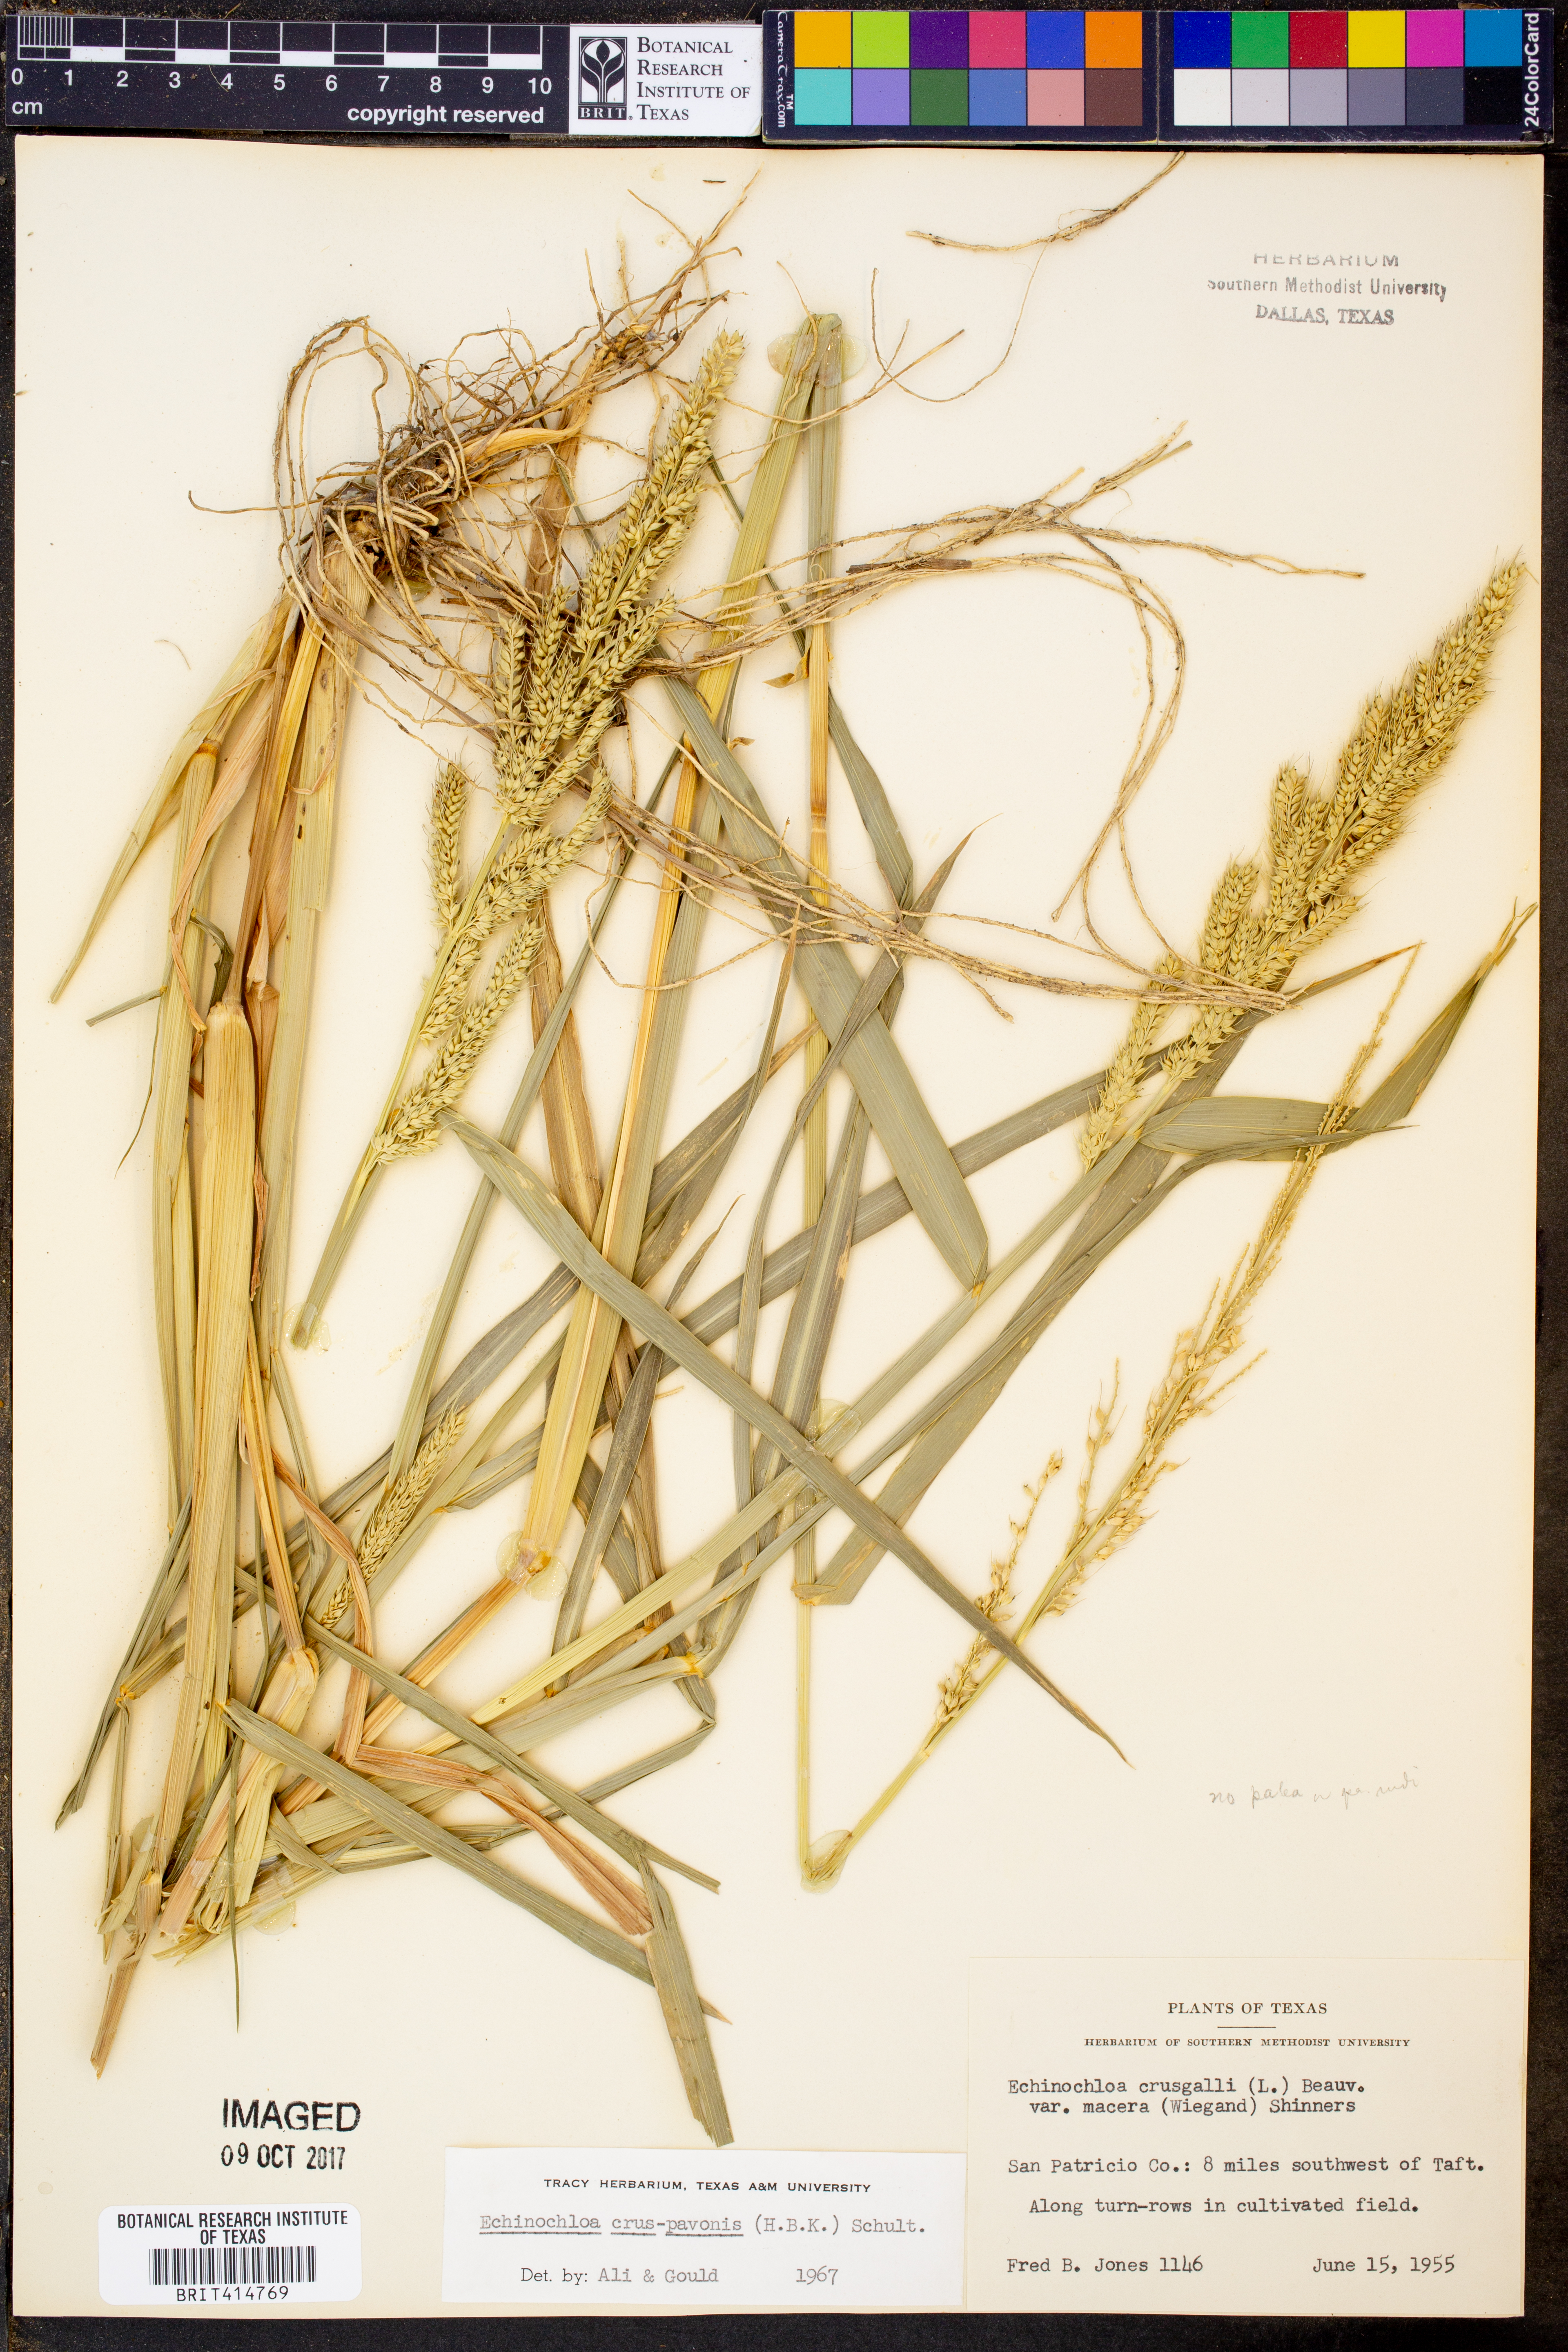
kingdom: Plantae
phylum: Tracheophyta
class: Liliopsida
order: Poales
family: Poaceae
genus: Echinochloa
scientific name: Echinochloa crus-pavonis
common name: Gulf cockspur grass
